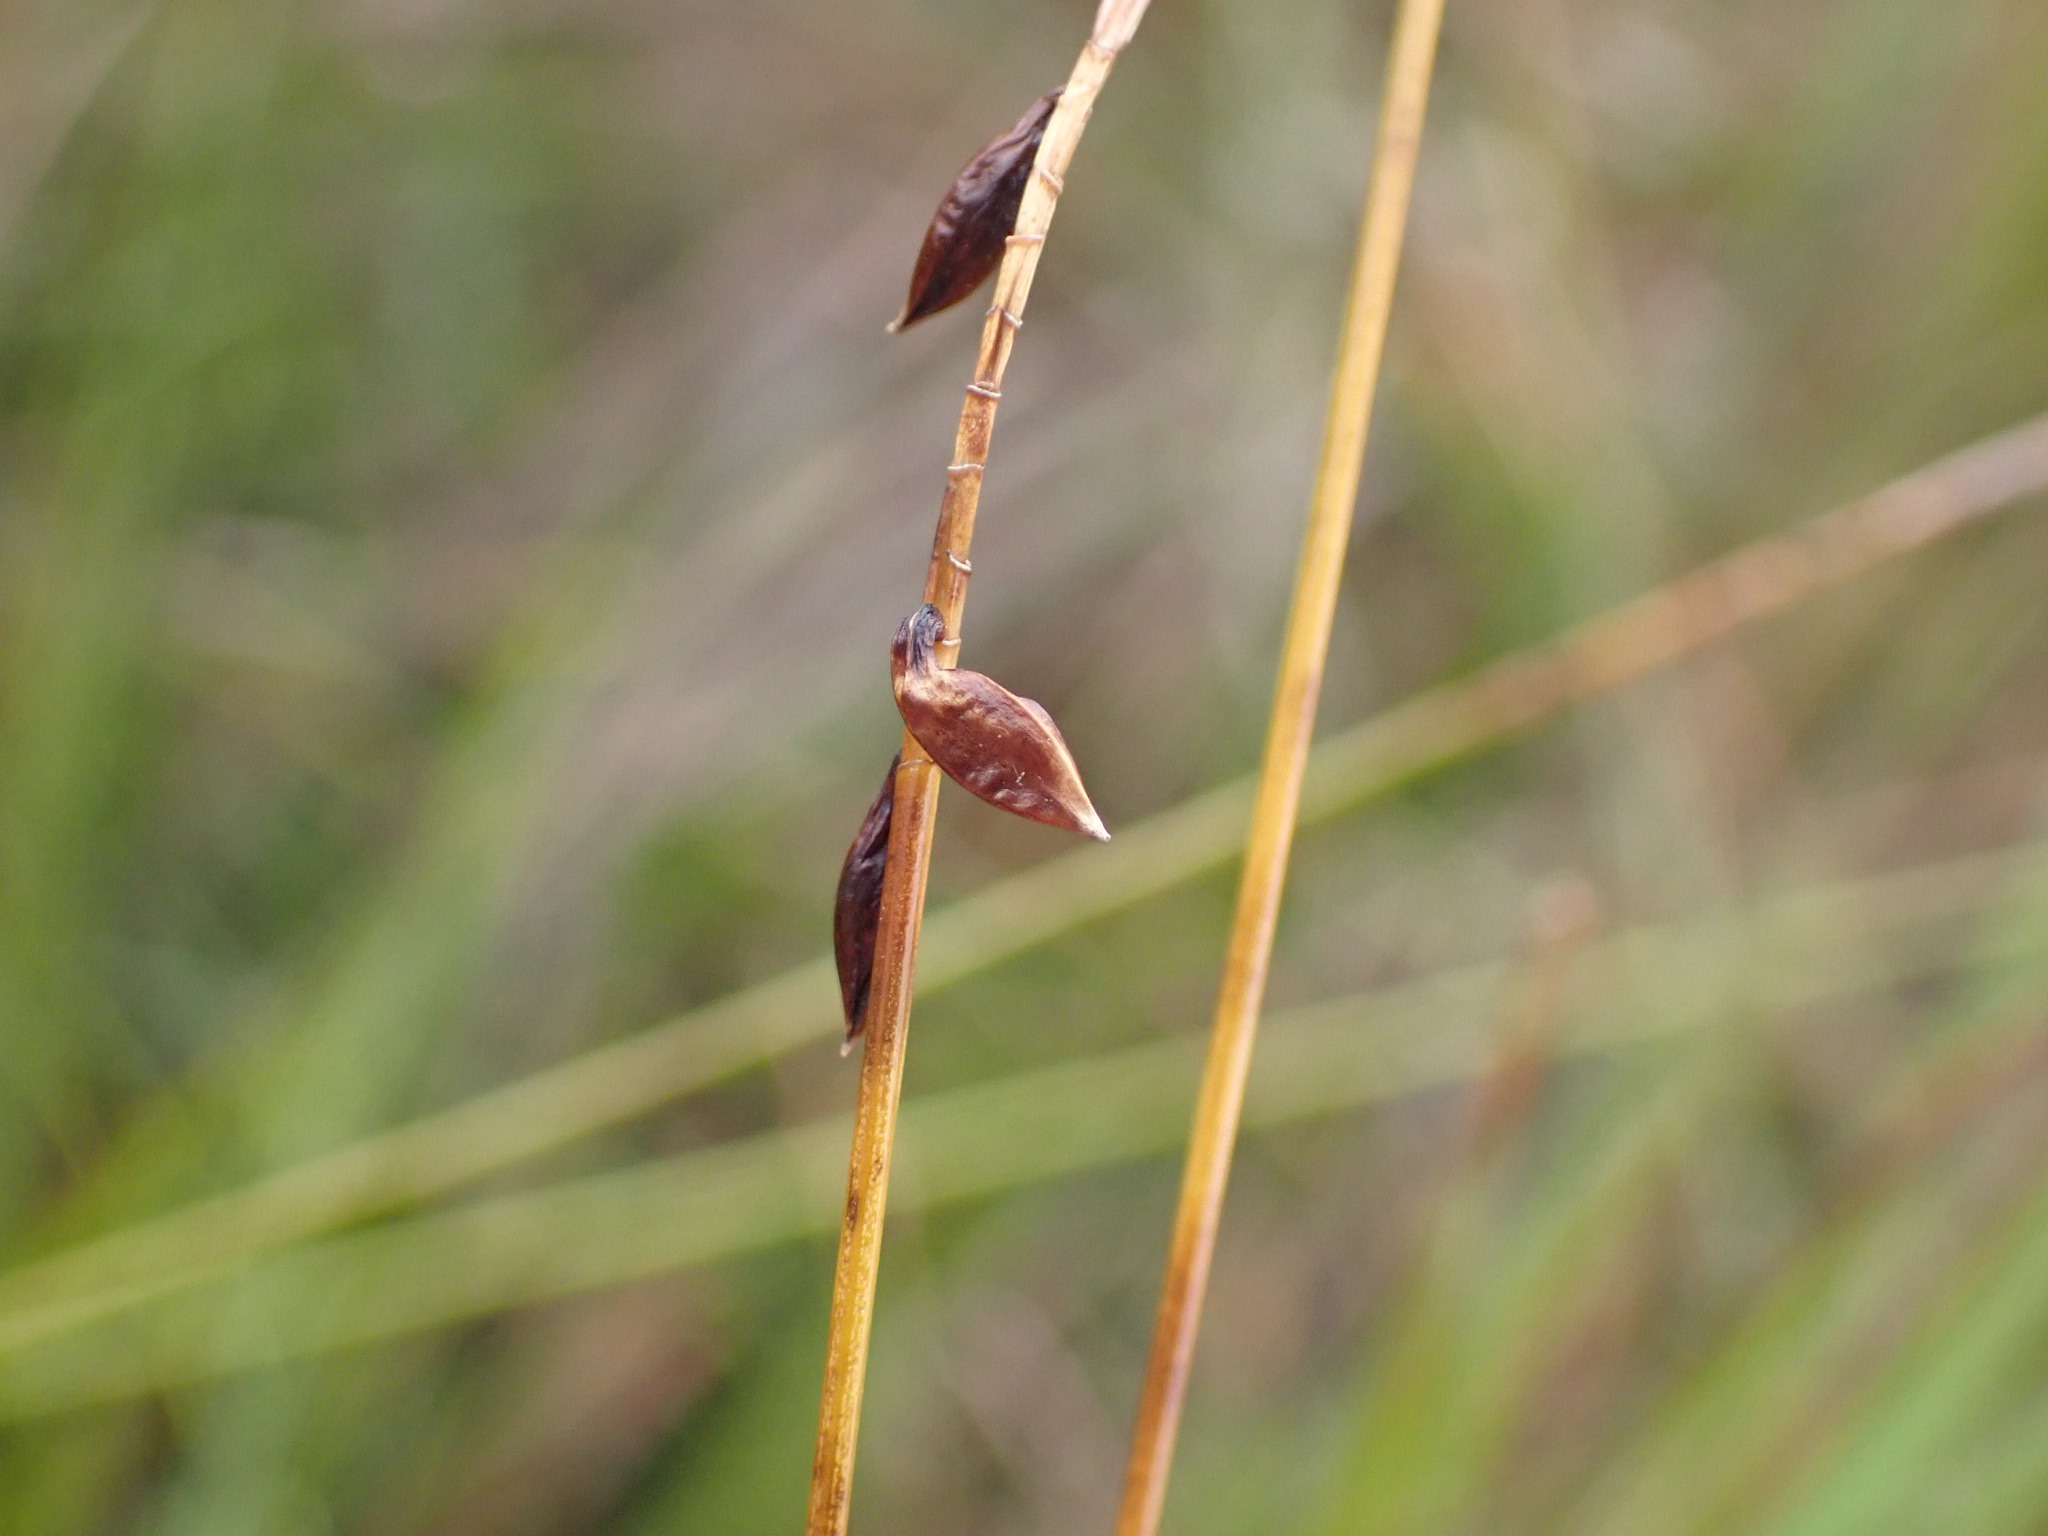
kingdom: Plantae
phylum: Tracheophyta
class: Liliopsida
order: Poales
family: Cyperaceae
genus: Carex
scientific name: Carex pulicaris
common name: Loppe-star
